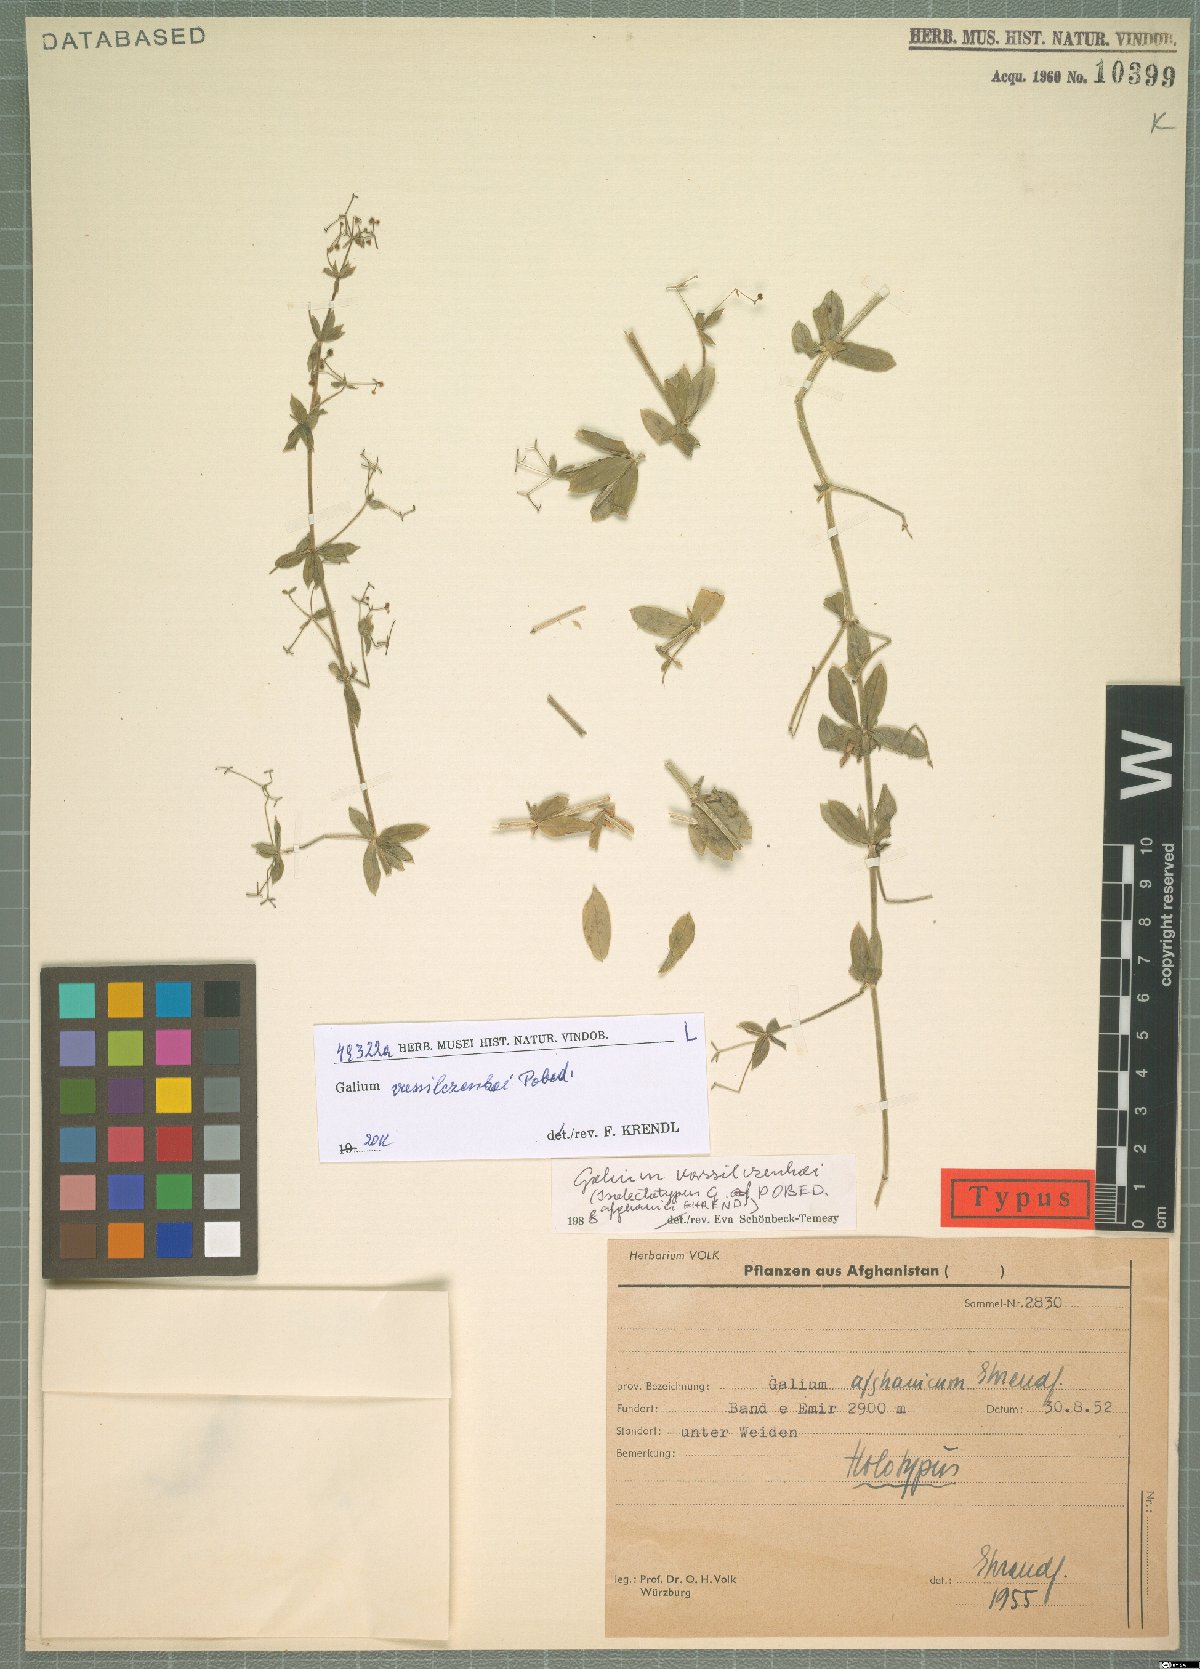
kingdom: Plantae
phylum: Tracheophyta
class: Magnoliopsida
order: Gentianales
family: Rubiaceae
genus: Galium
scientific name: Galium vassilczenkoi
